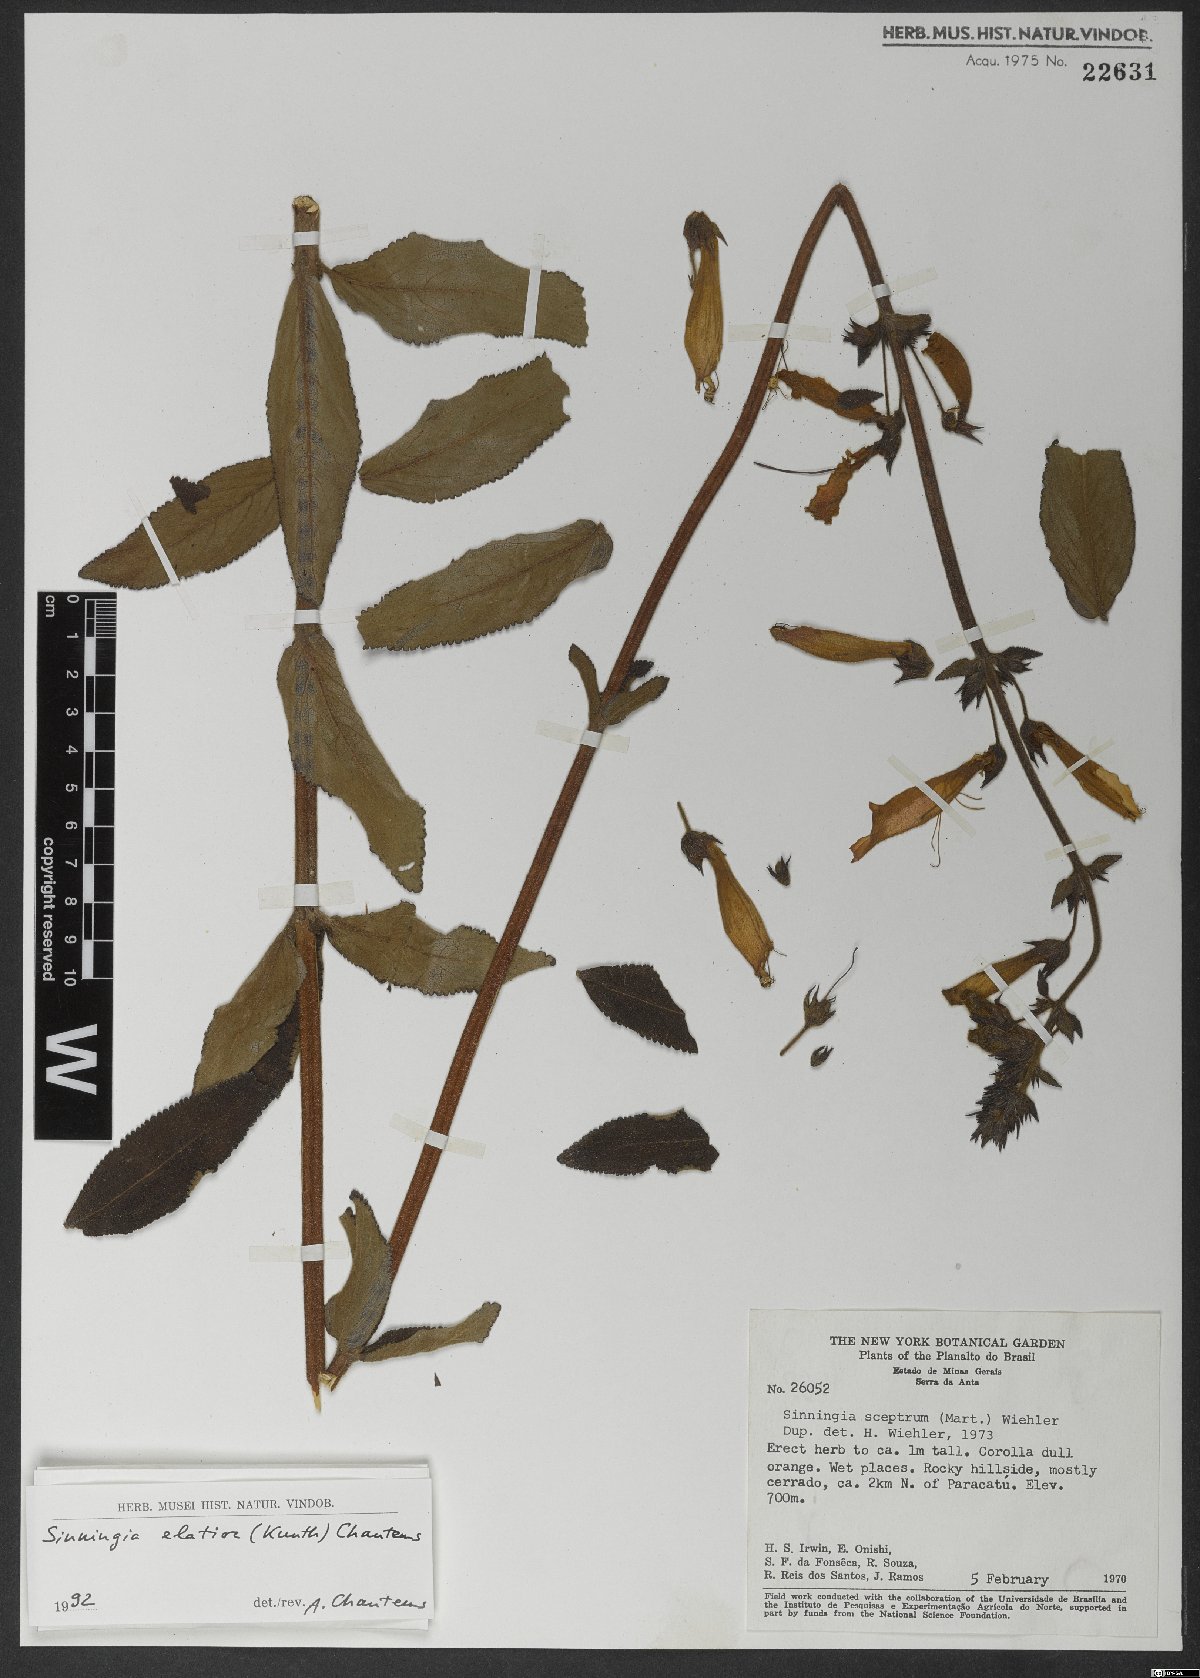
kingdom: Plantae
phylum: Tracheophyta
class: Magnoliopsida
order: Lamiales
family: Gesneriaceae
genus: Sinningia
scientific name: Sinningia elatior
